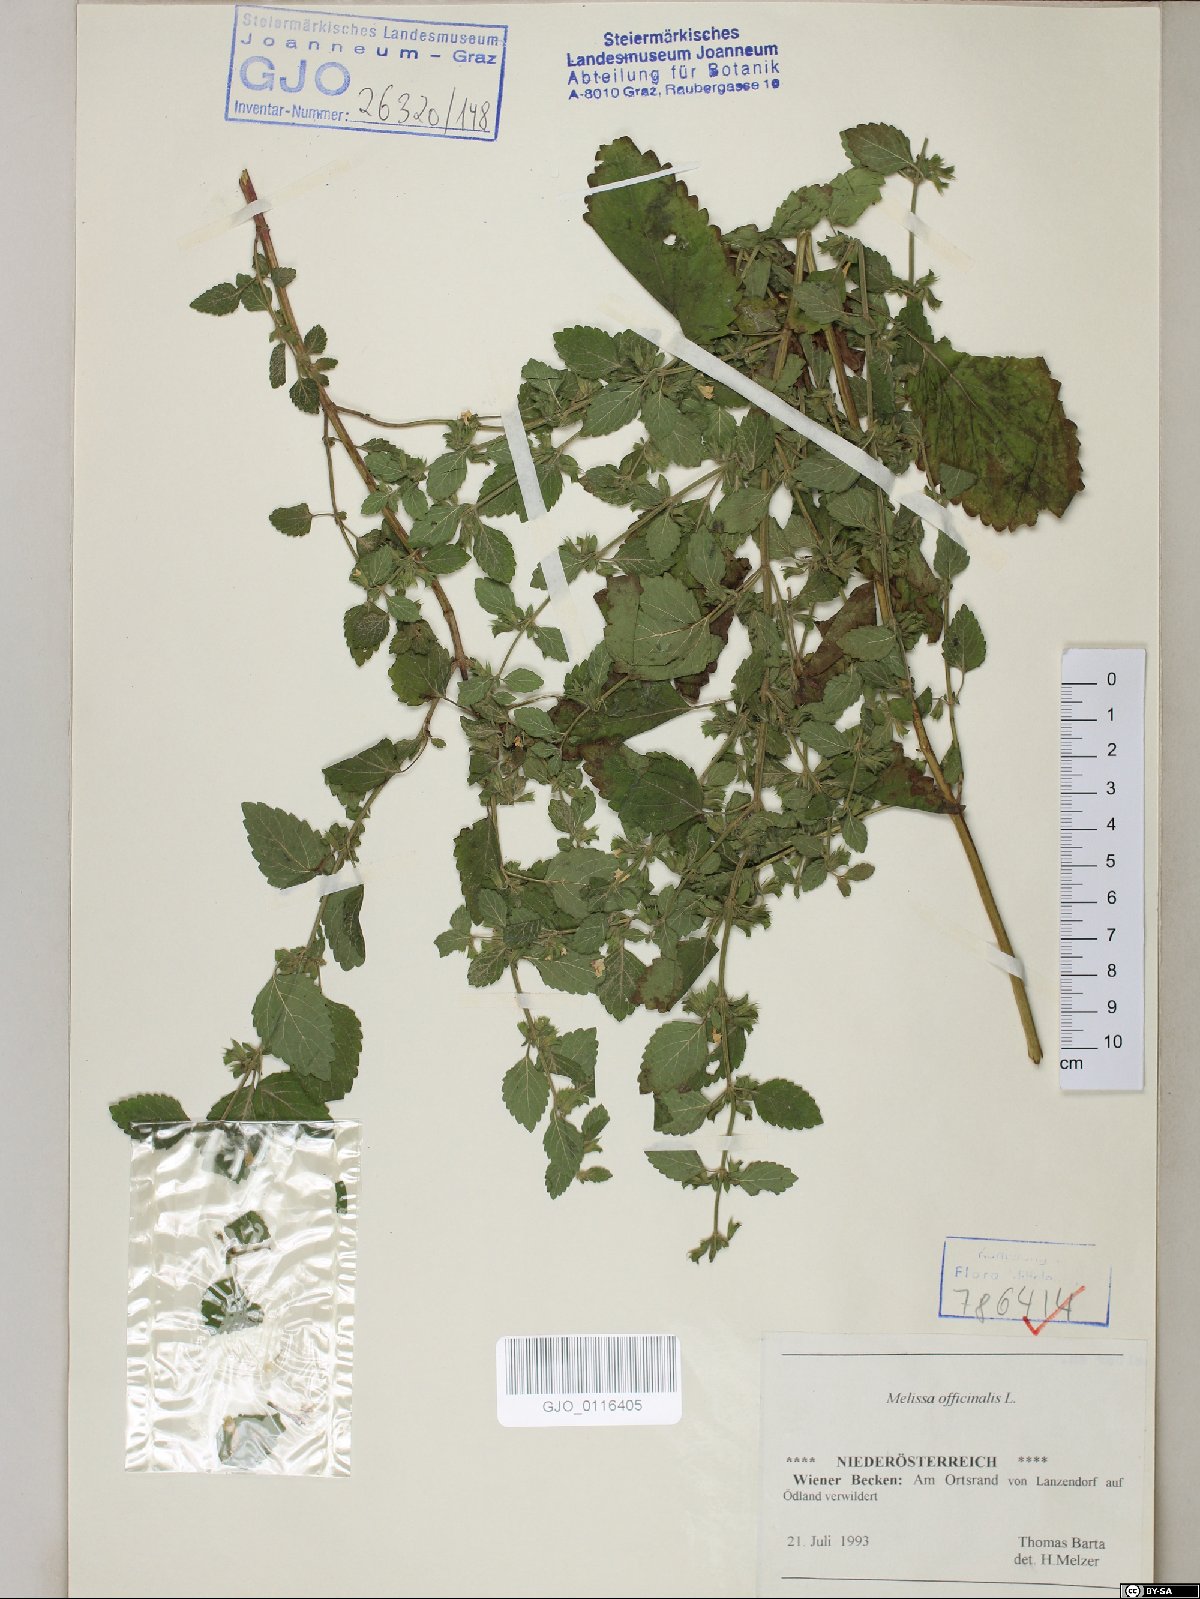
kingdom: Plantae
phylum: Tracheophyta
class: Magnoliopsida
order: Lamiales
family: Lamiaceae
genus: Melissa
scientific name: Melissa officinalis
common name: Balm
